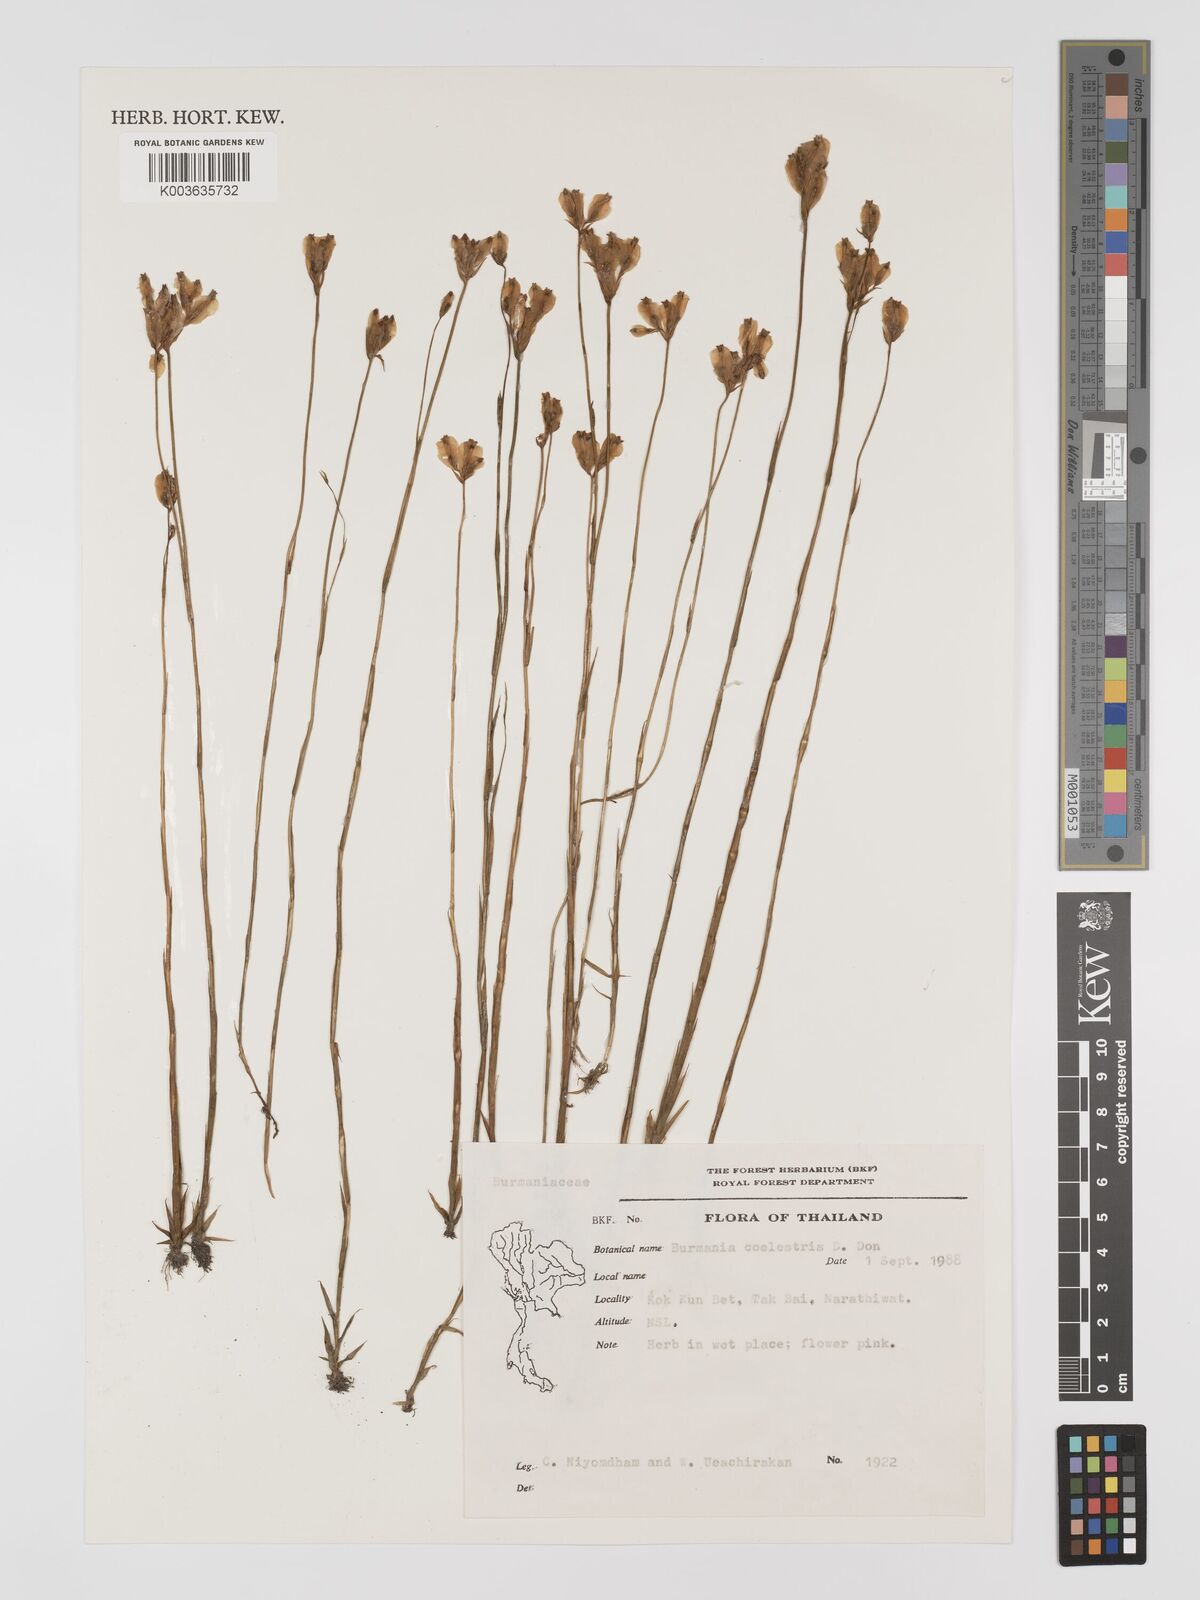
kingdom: Plantae
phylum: Tracheophyta
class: Liliopsida
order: Dioscoreales
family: Burmanniaceae
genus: Burmannia
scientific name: Burmannia coelestis
